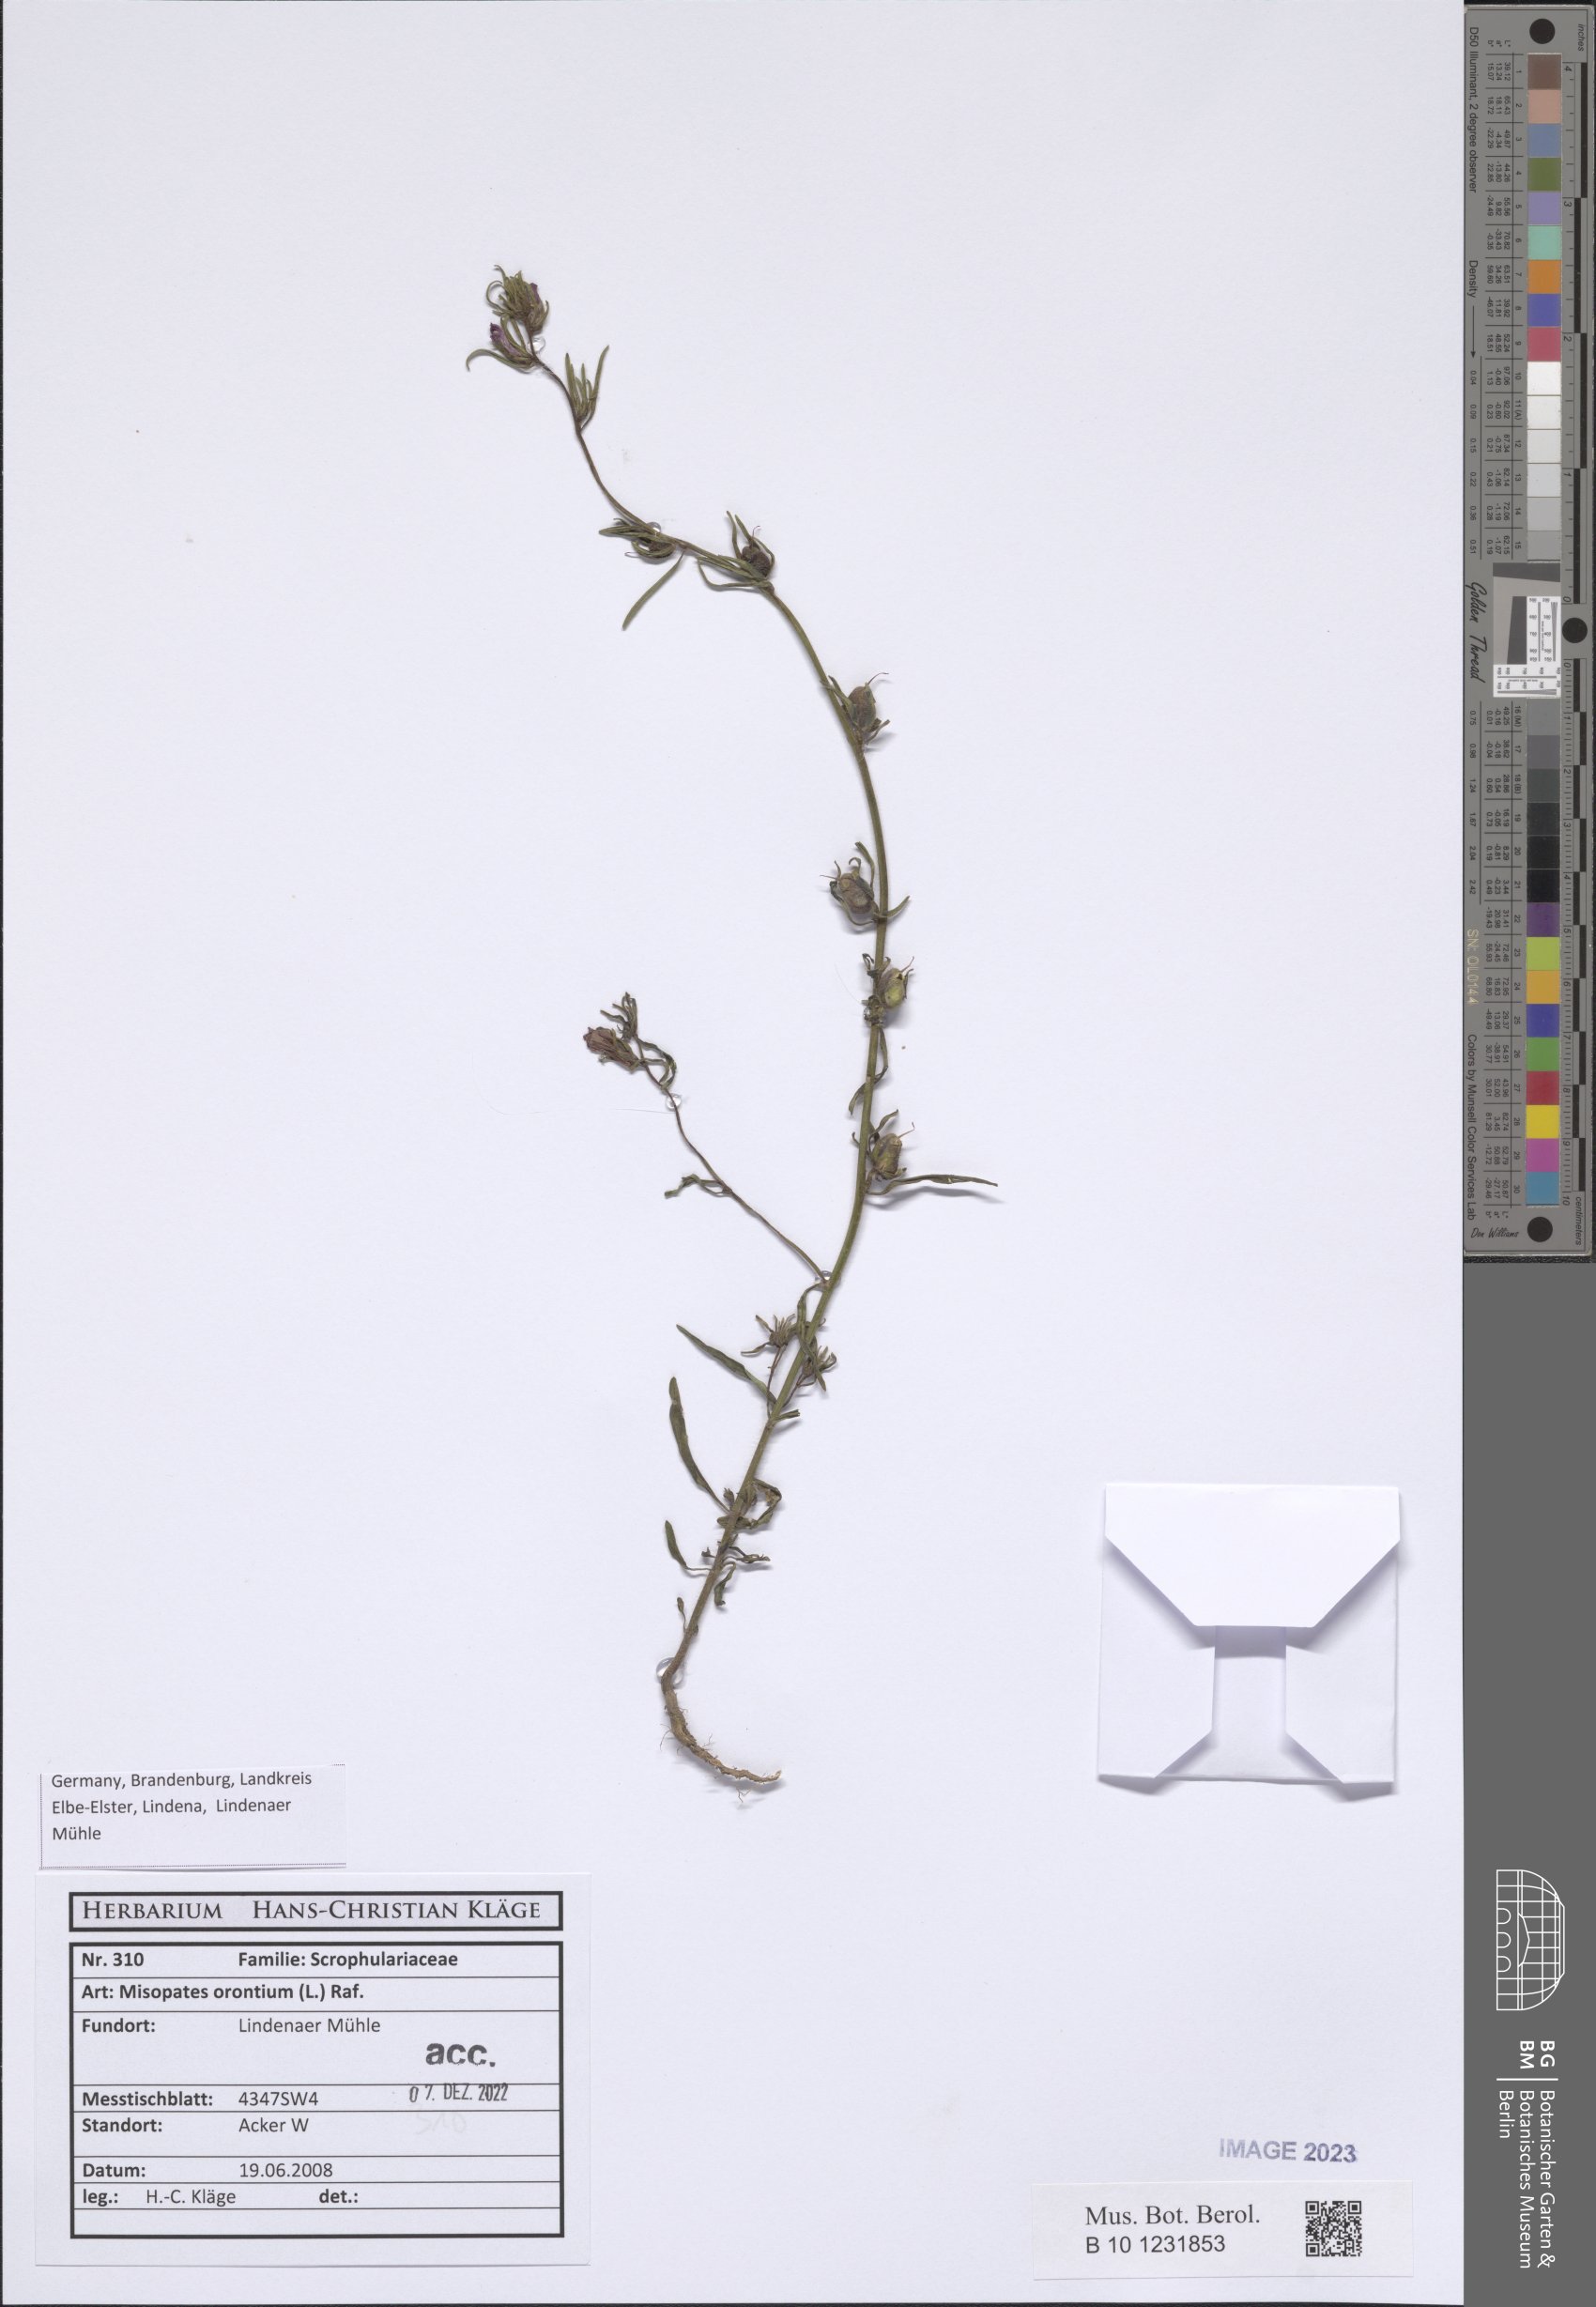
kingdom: Plantae
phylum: Tracheophyta
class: Magnoliopsida
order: Lamiales
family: Plantaginaceae
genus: Misopates
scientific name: Misopates orontium
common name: Weasel's-snout
